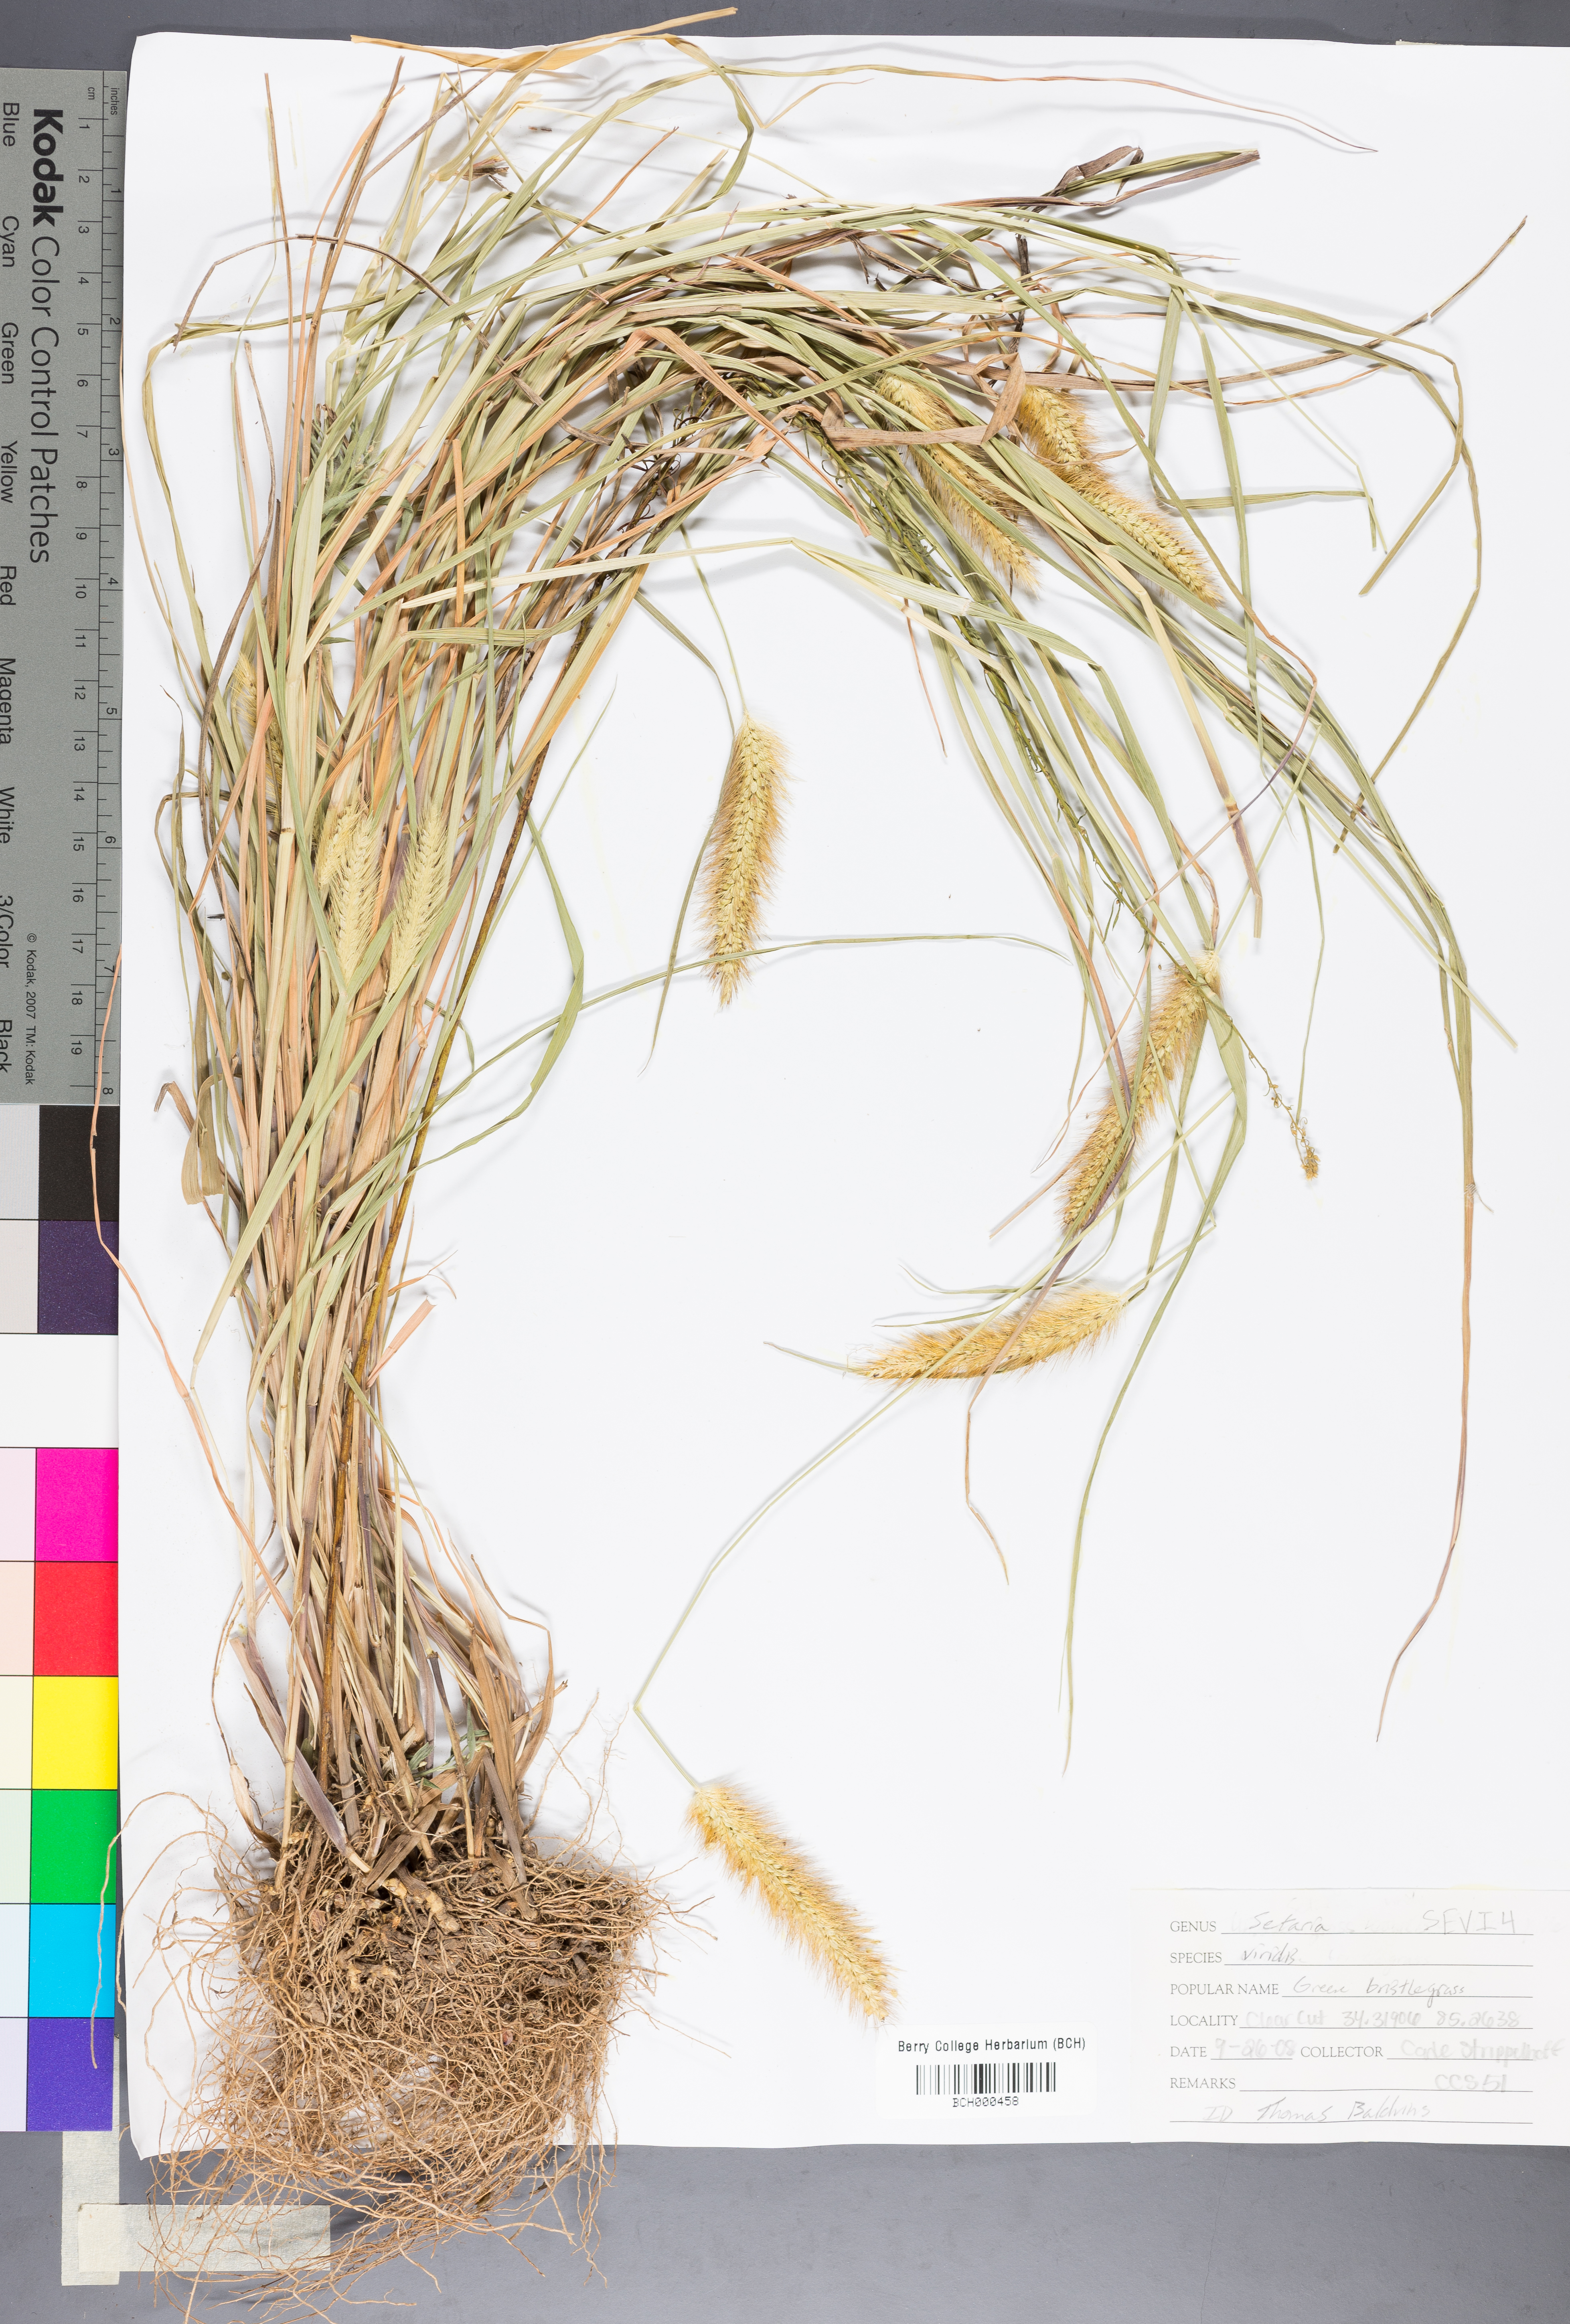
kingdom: Plantae
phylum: Tracheophyta
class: Liliopsida
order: Poales
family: Poaceae
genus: Setaria
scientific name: Setaria viridis
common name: Green bristlegrass
